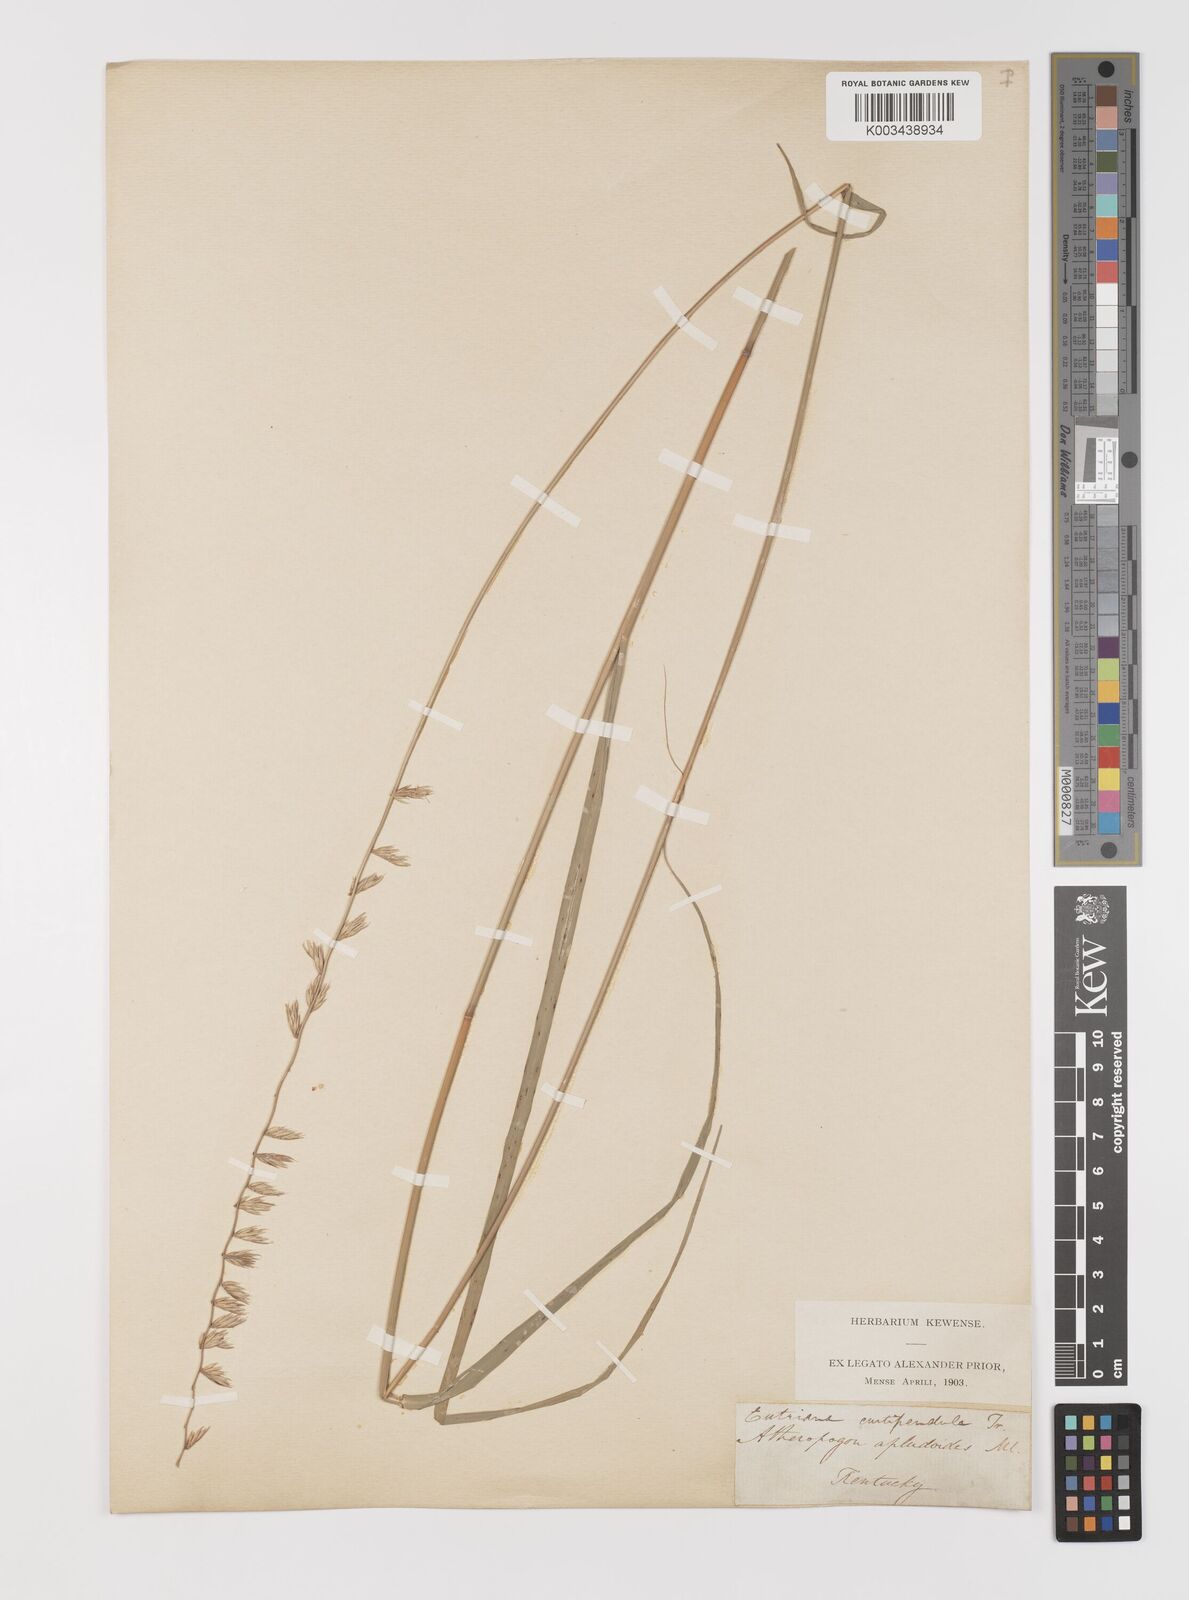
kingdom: Plantae
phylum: Tracheophyta
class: Liliopsida
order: Poales
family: Poaceae
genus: Bouteloua
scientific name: Bouteloua curtipendula
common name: Side-oats grama
